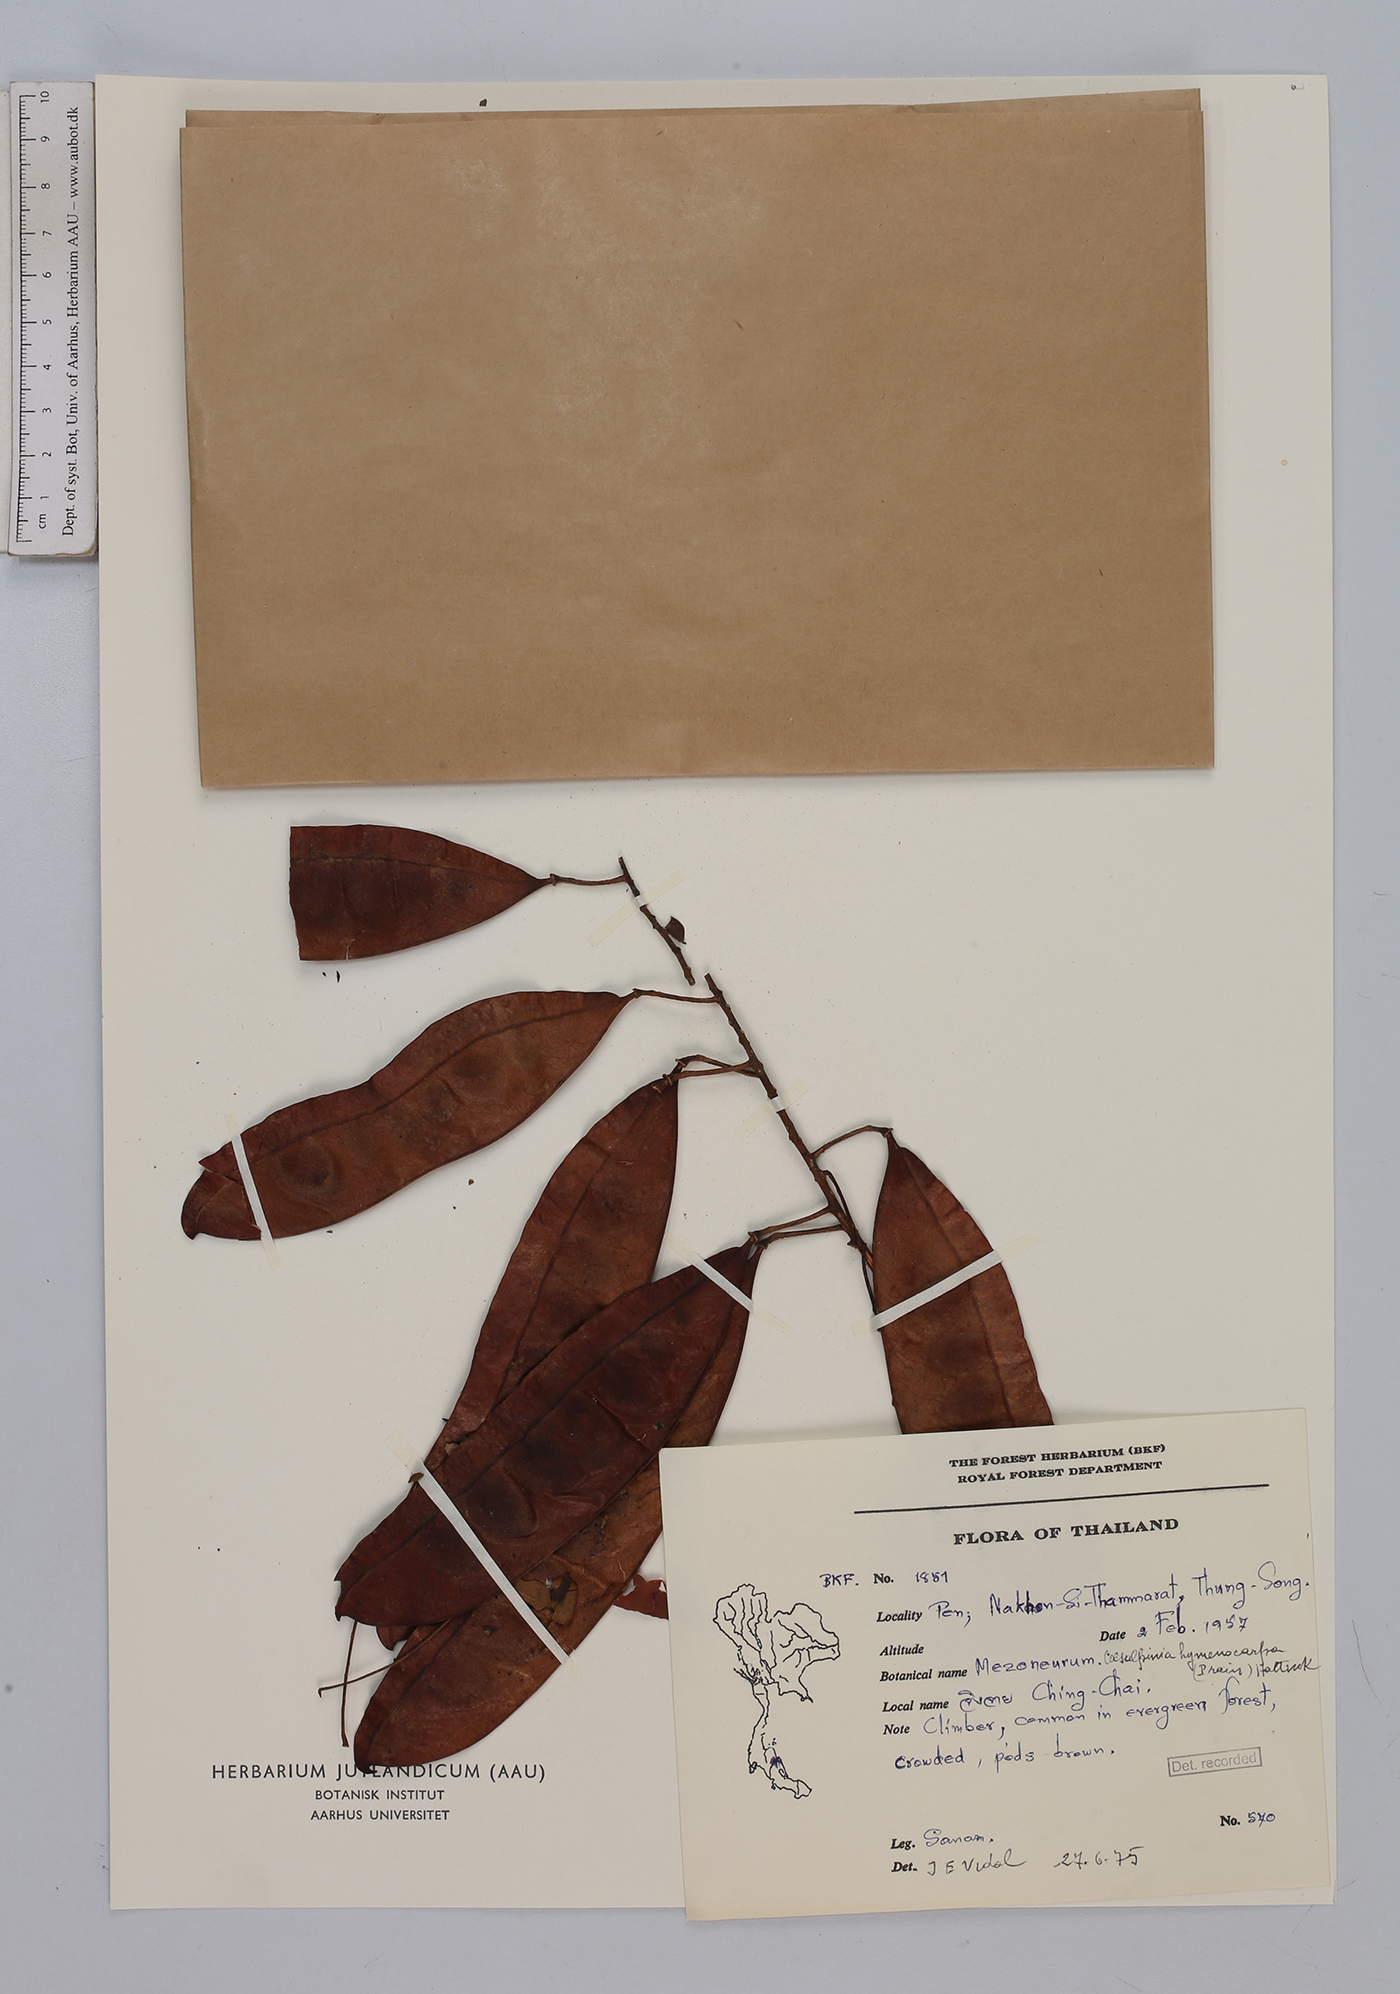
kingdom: Plantae
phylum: Tracheophyta
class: Magnoliopsida
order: Fabales
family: Fabaceae
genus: Mezoneuron
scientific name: Mezoneuron hymenocarpum
